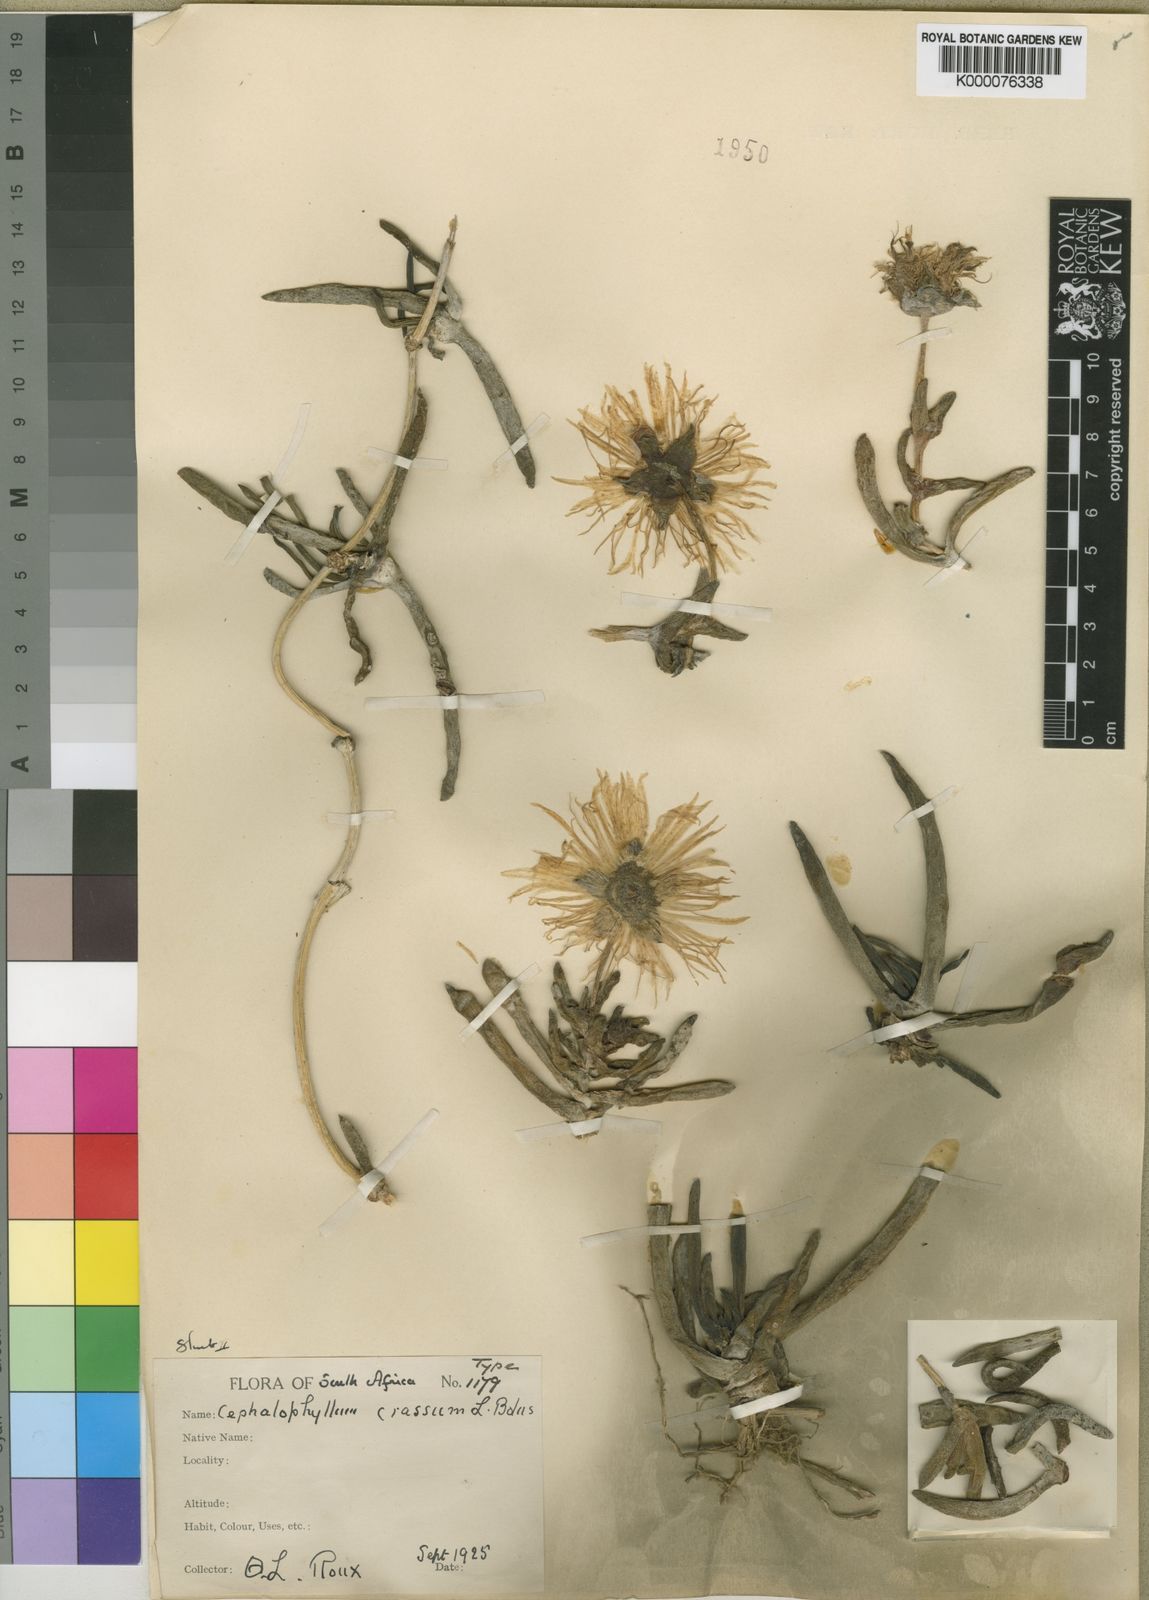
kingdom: Plantae
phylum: Tracheophyta
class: Magnoliopsida
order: Caryophyllales
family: Aizoaceae
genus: Cephalophyllum
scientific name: Cephalophyllum tricolorum
